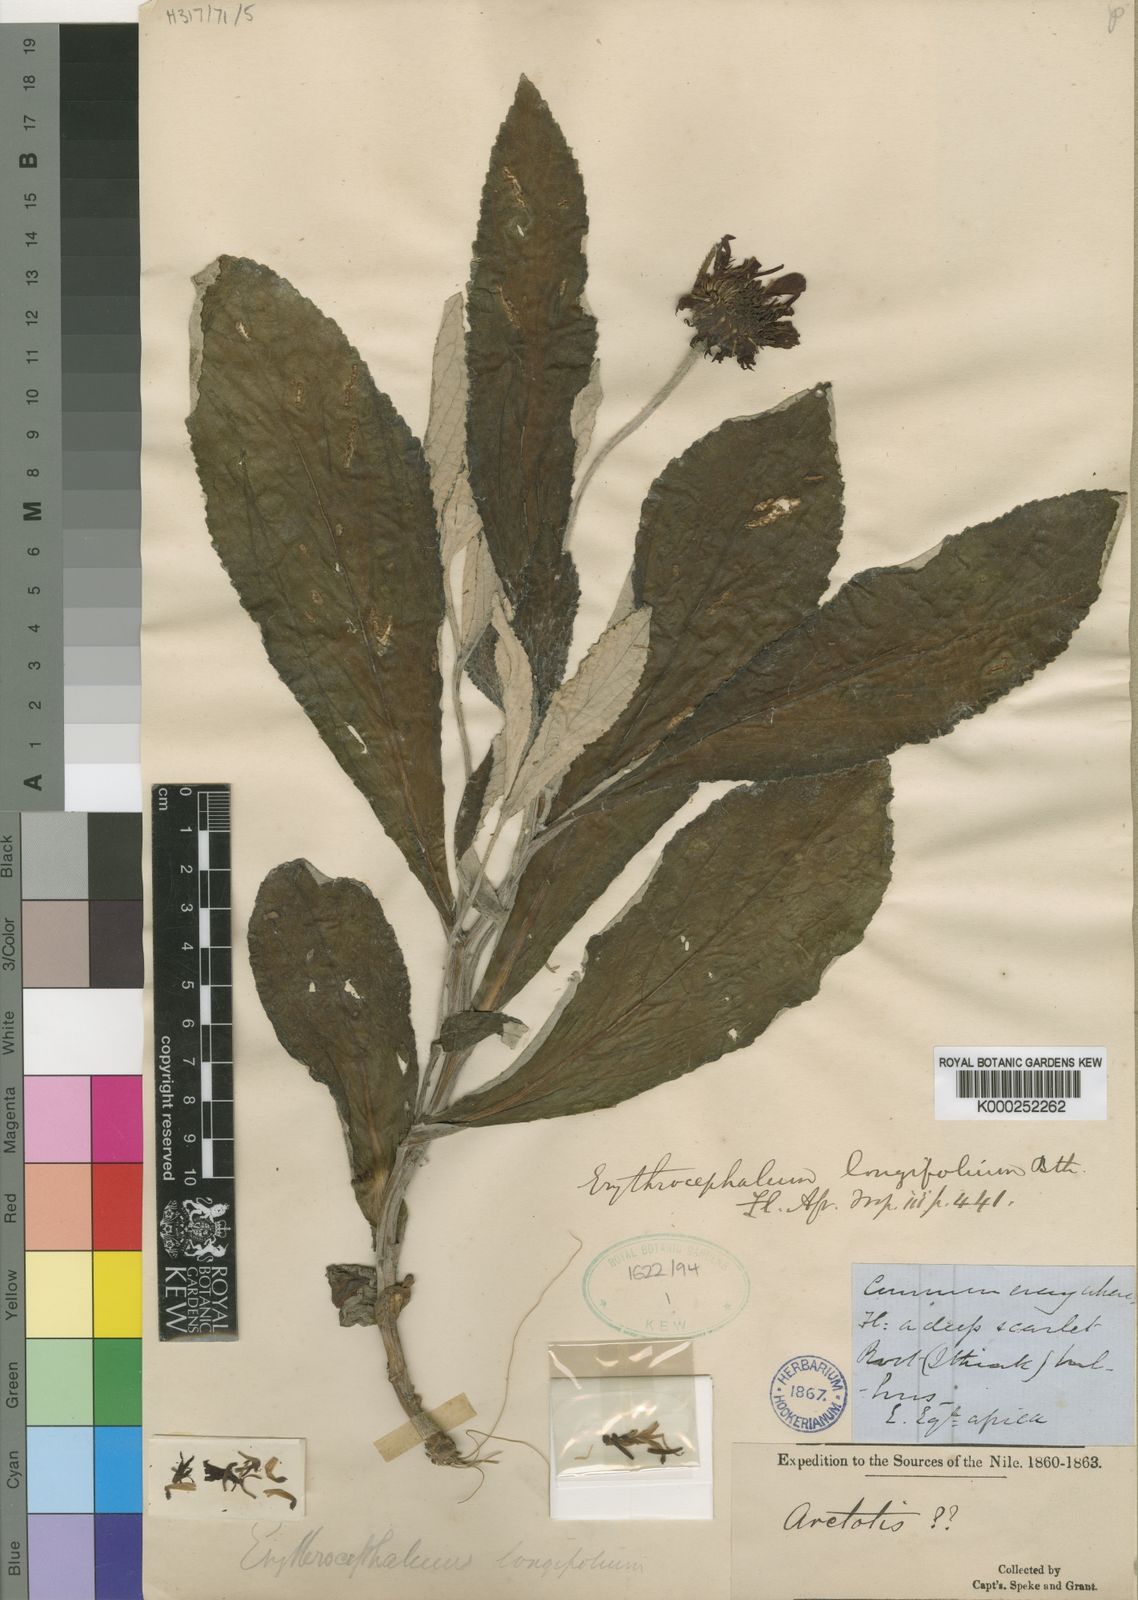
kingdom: Plantae
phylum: Tracheophyta
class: Magnoliopsida
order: Asterales
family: Asteraceae
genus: Erythrocephalum
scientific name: Erythrocephalum longifolium
